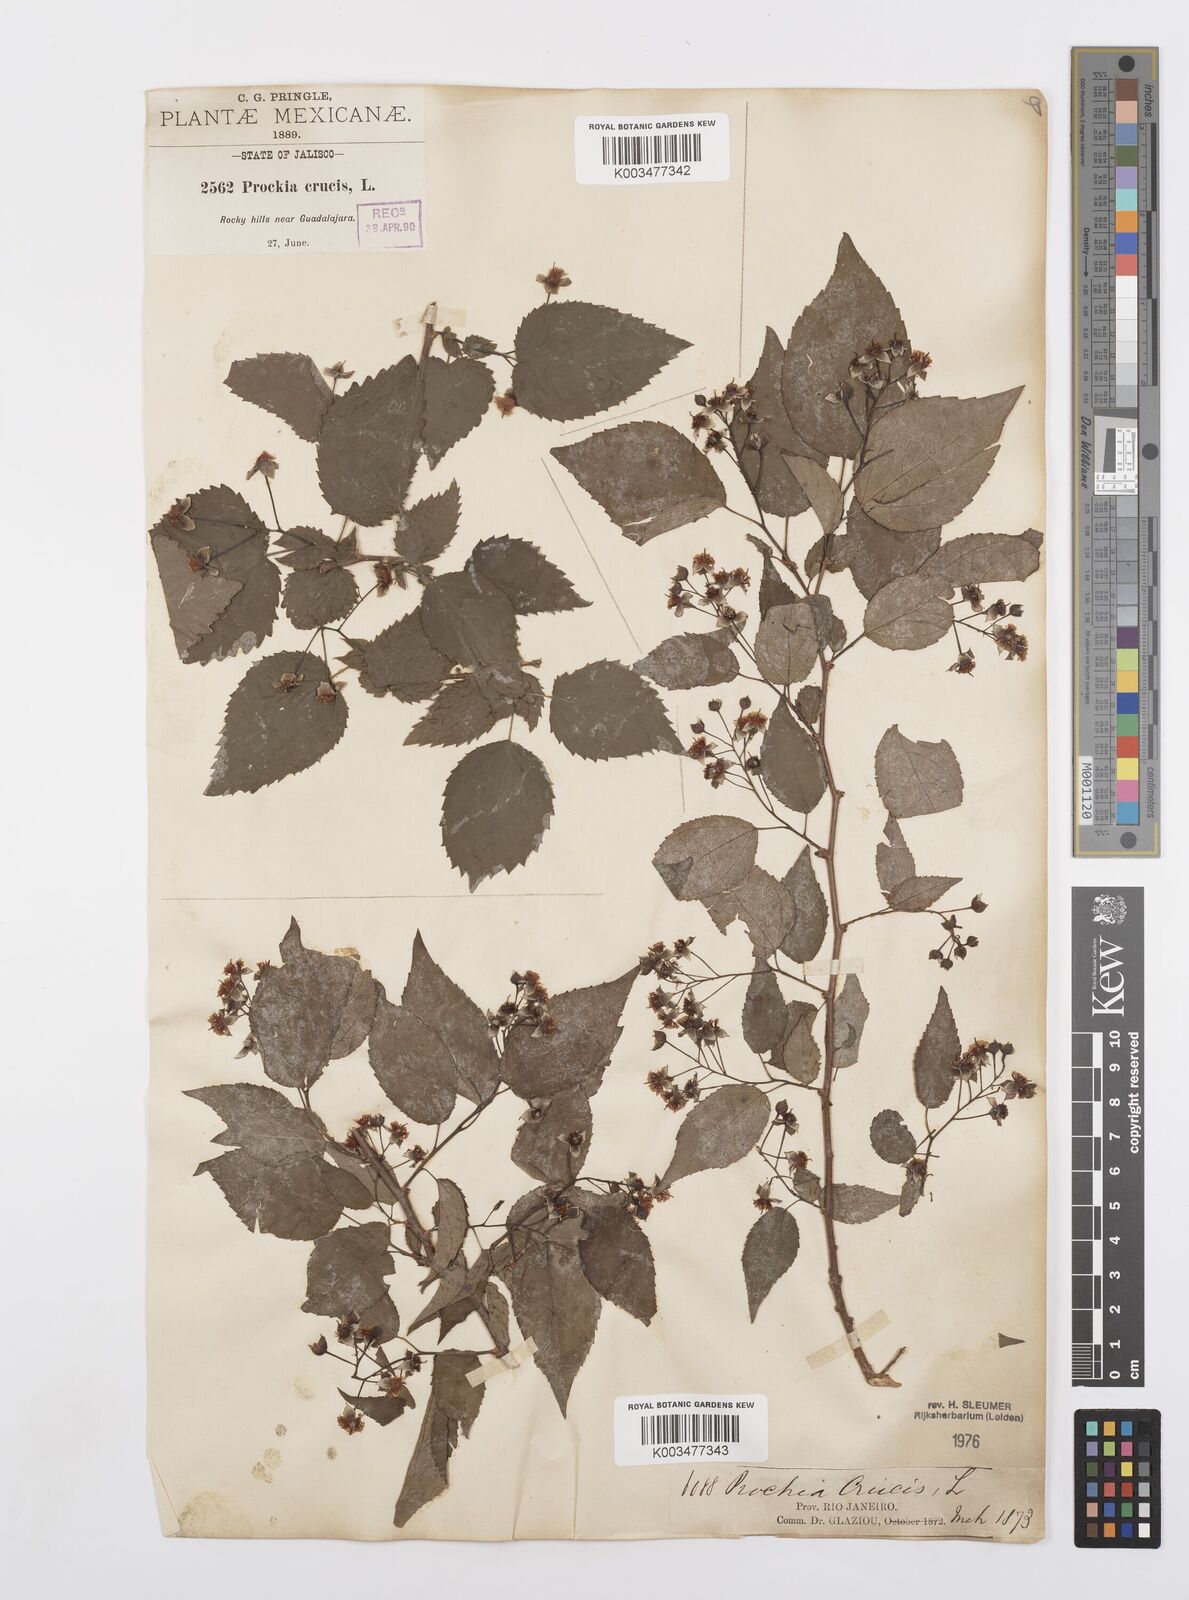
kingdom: Plantae
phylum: Tracheophyta
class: Magnoliopsida
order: Malpighiales
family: Salicaceae
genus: Prockia
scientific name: Prockia crucis
